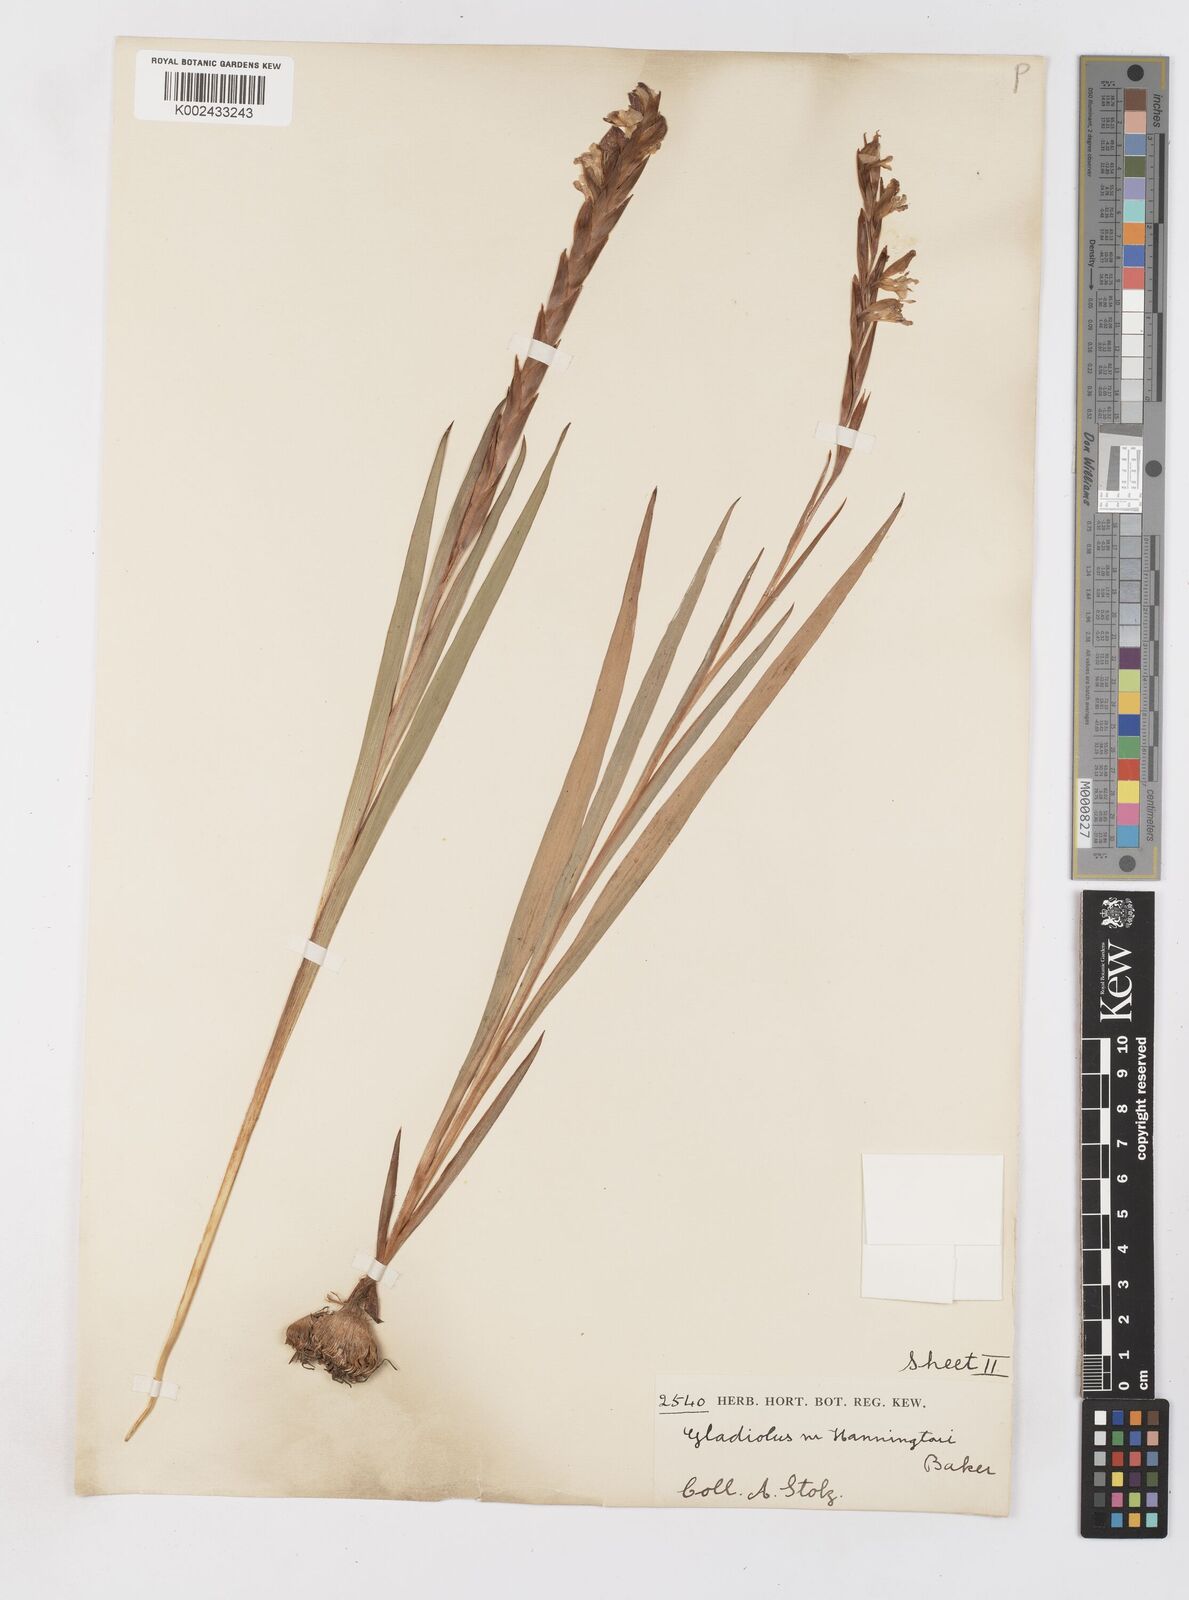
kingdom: Plantae
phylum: Tracheophyta
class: Liliopsida
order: Asparagales
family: Iridaceae
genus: Gladiolus
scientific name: Gladiolus gregarius
